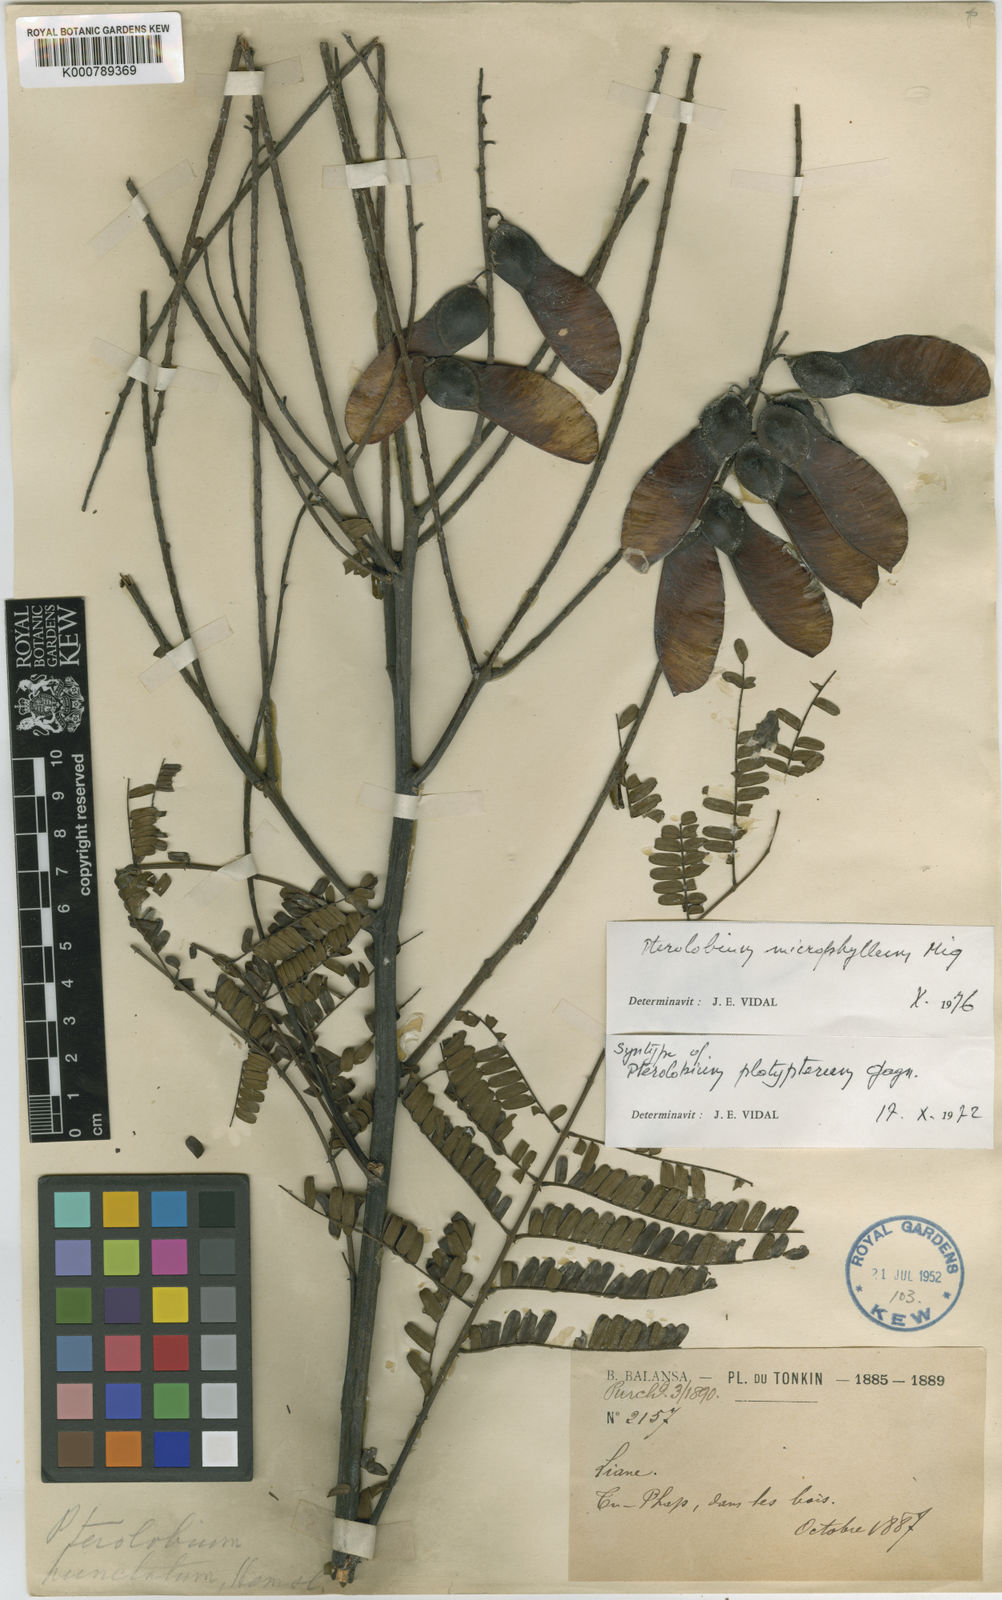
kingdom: Plantae
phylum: Tracheophyta
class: Magnoliopsida
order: Fabales
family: Fabaceae
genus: Pterolobium
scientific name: Pterolobium microphyllum
